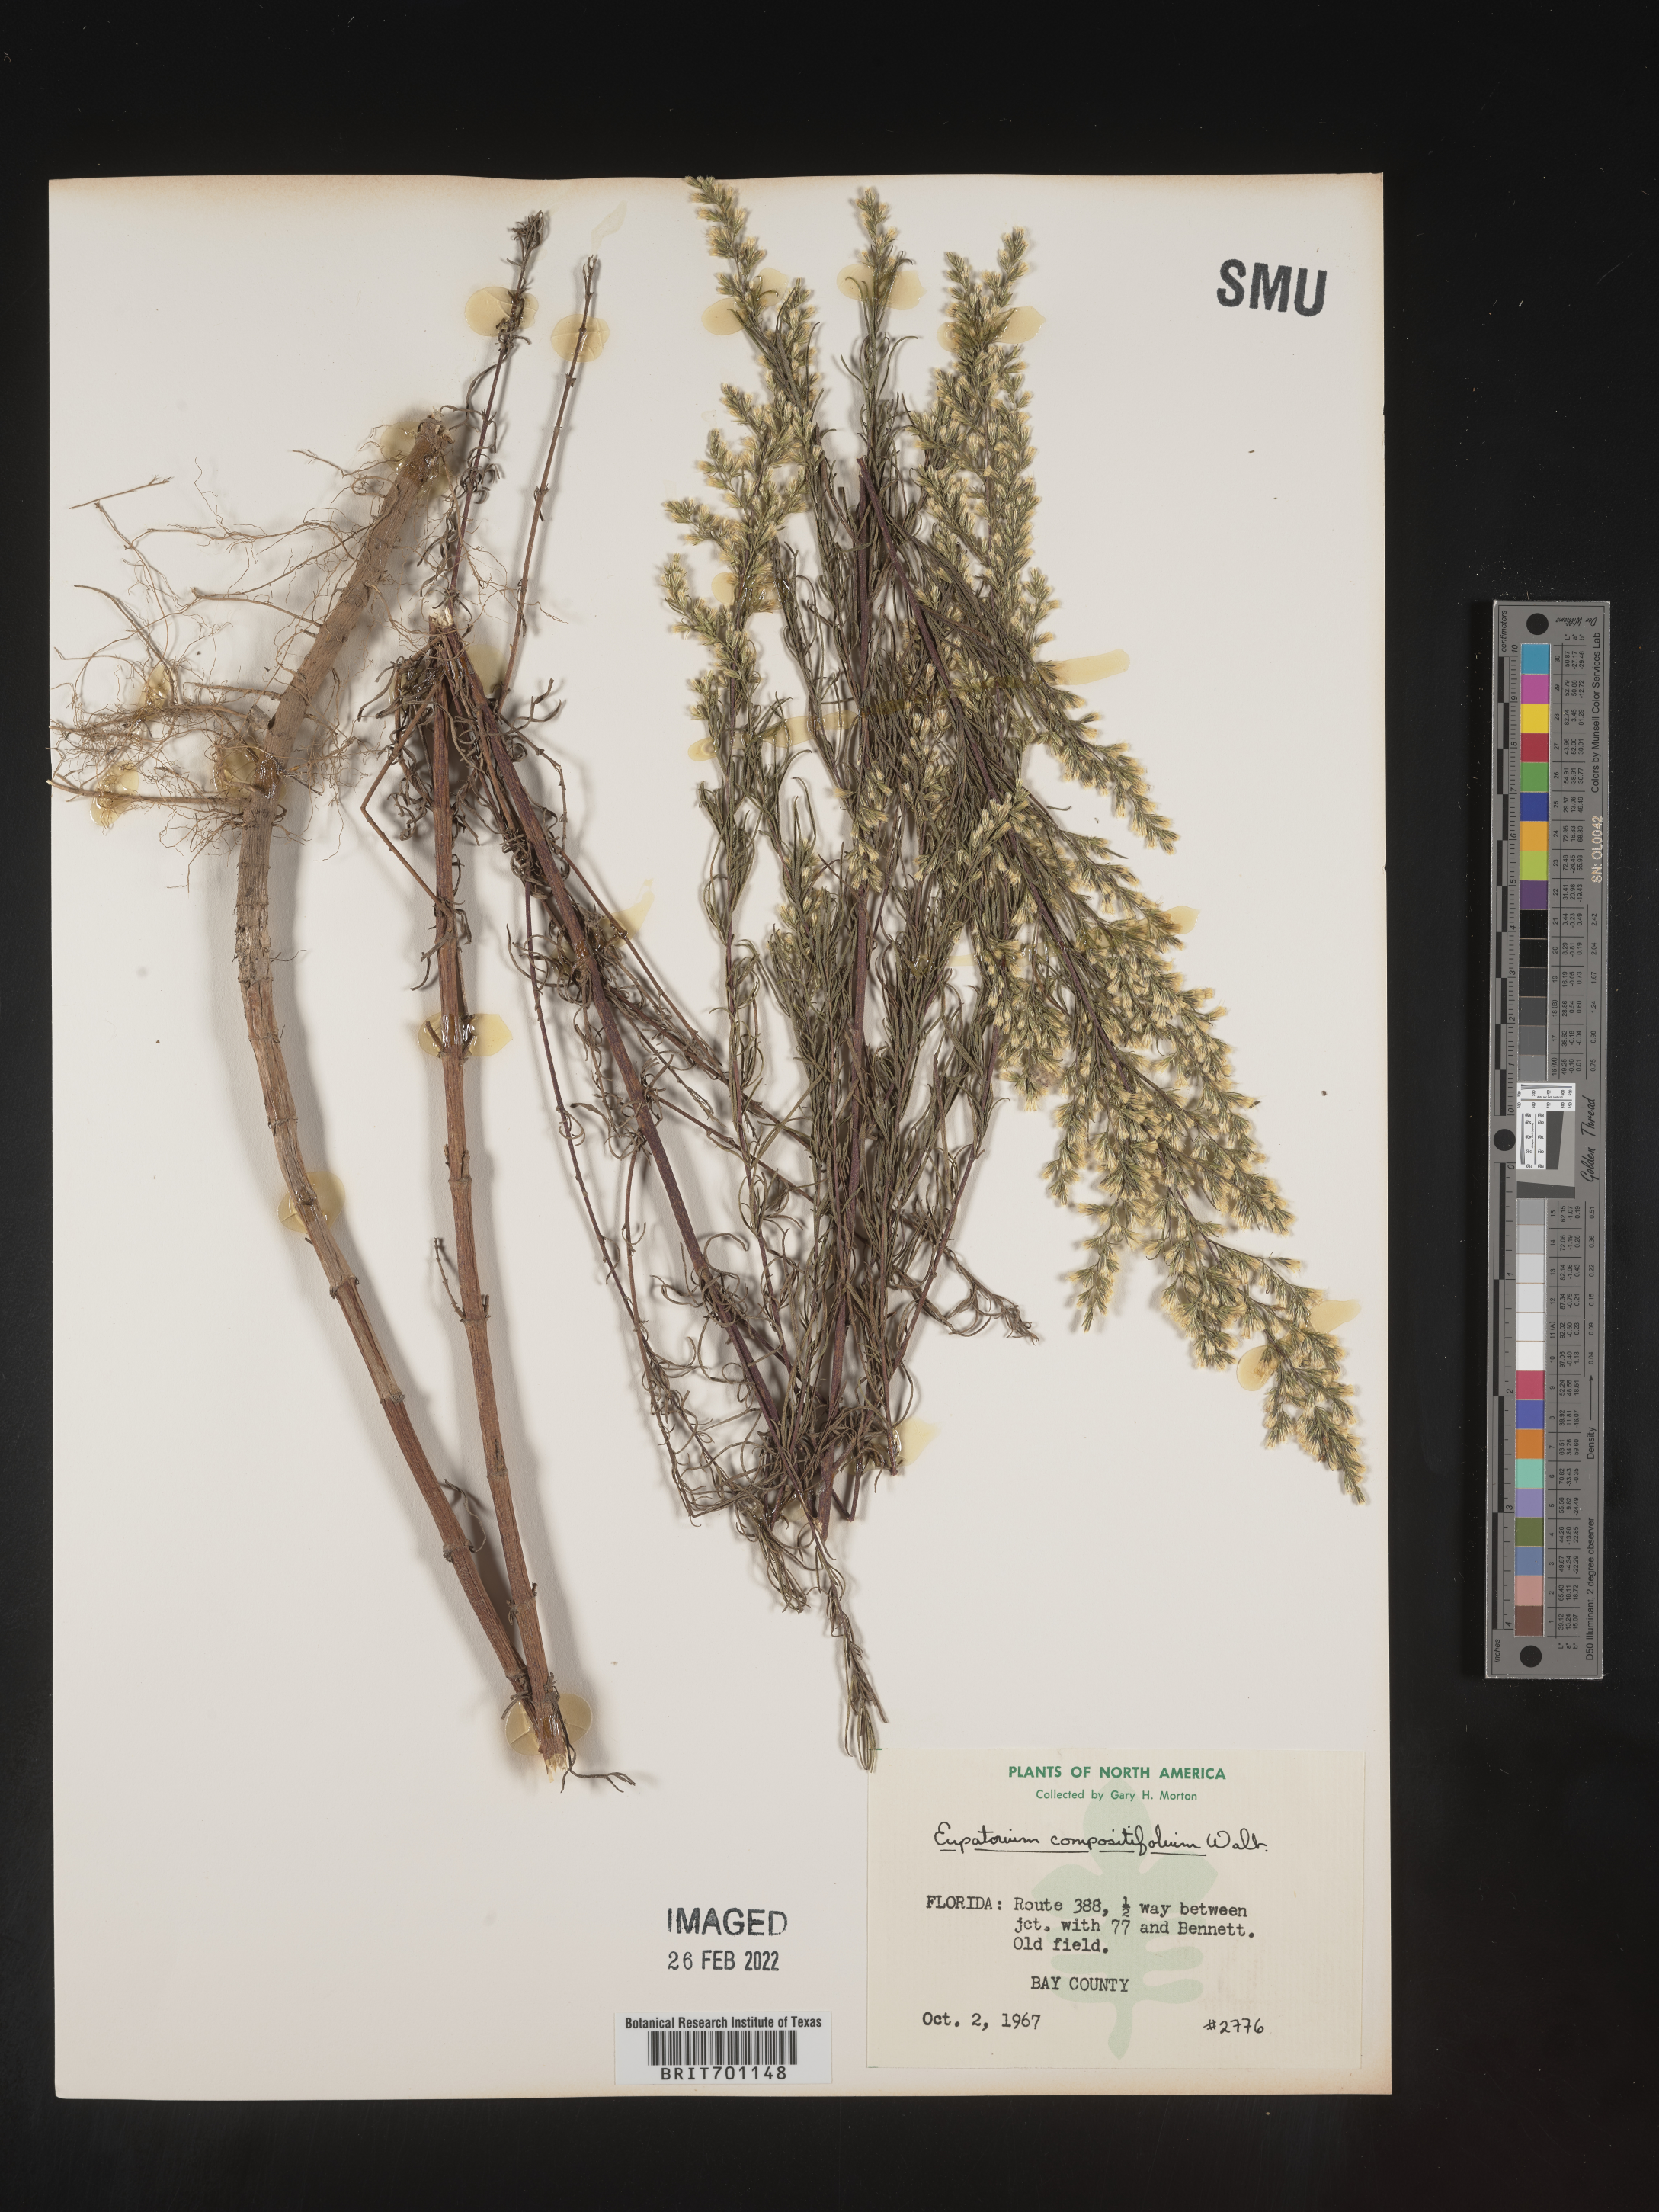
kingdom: Plantae
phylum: Tracheophyta
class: Magnoliopsida
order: Asterales
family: Asteraceae
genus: Eupatorium
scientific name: Eupatorium compositifolium
